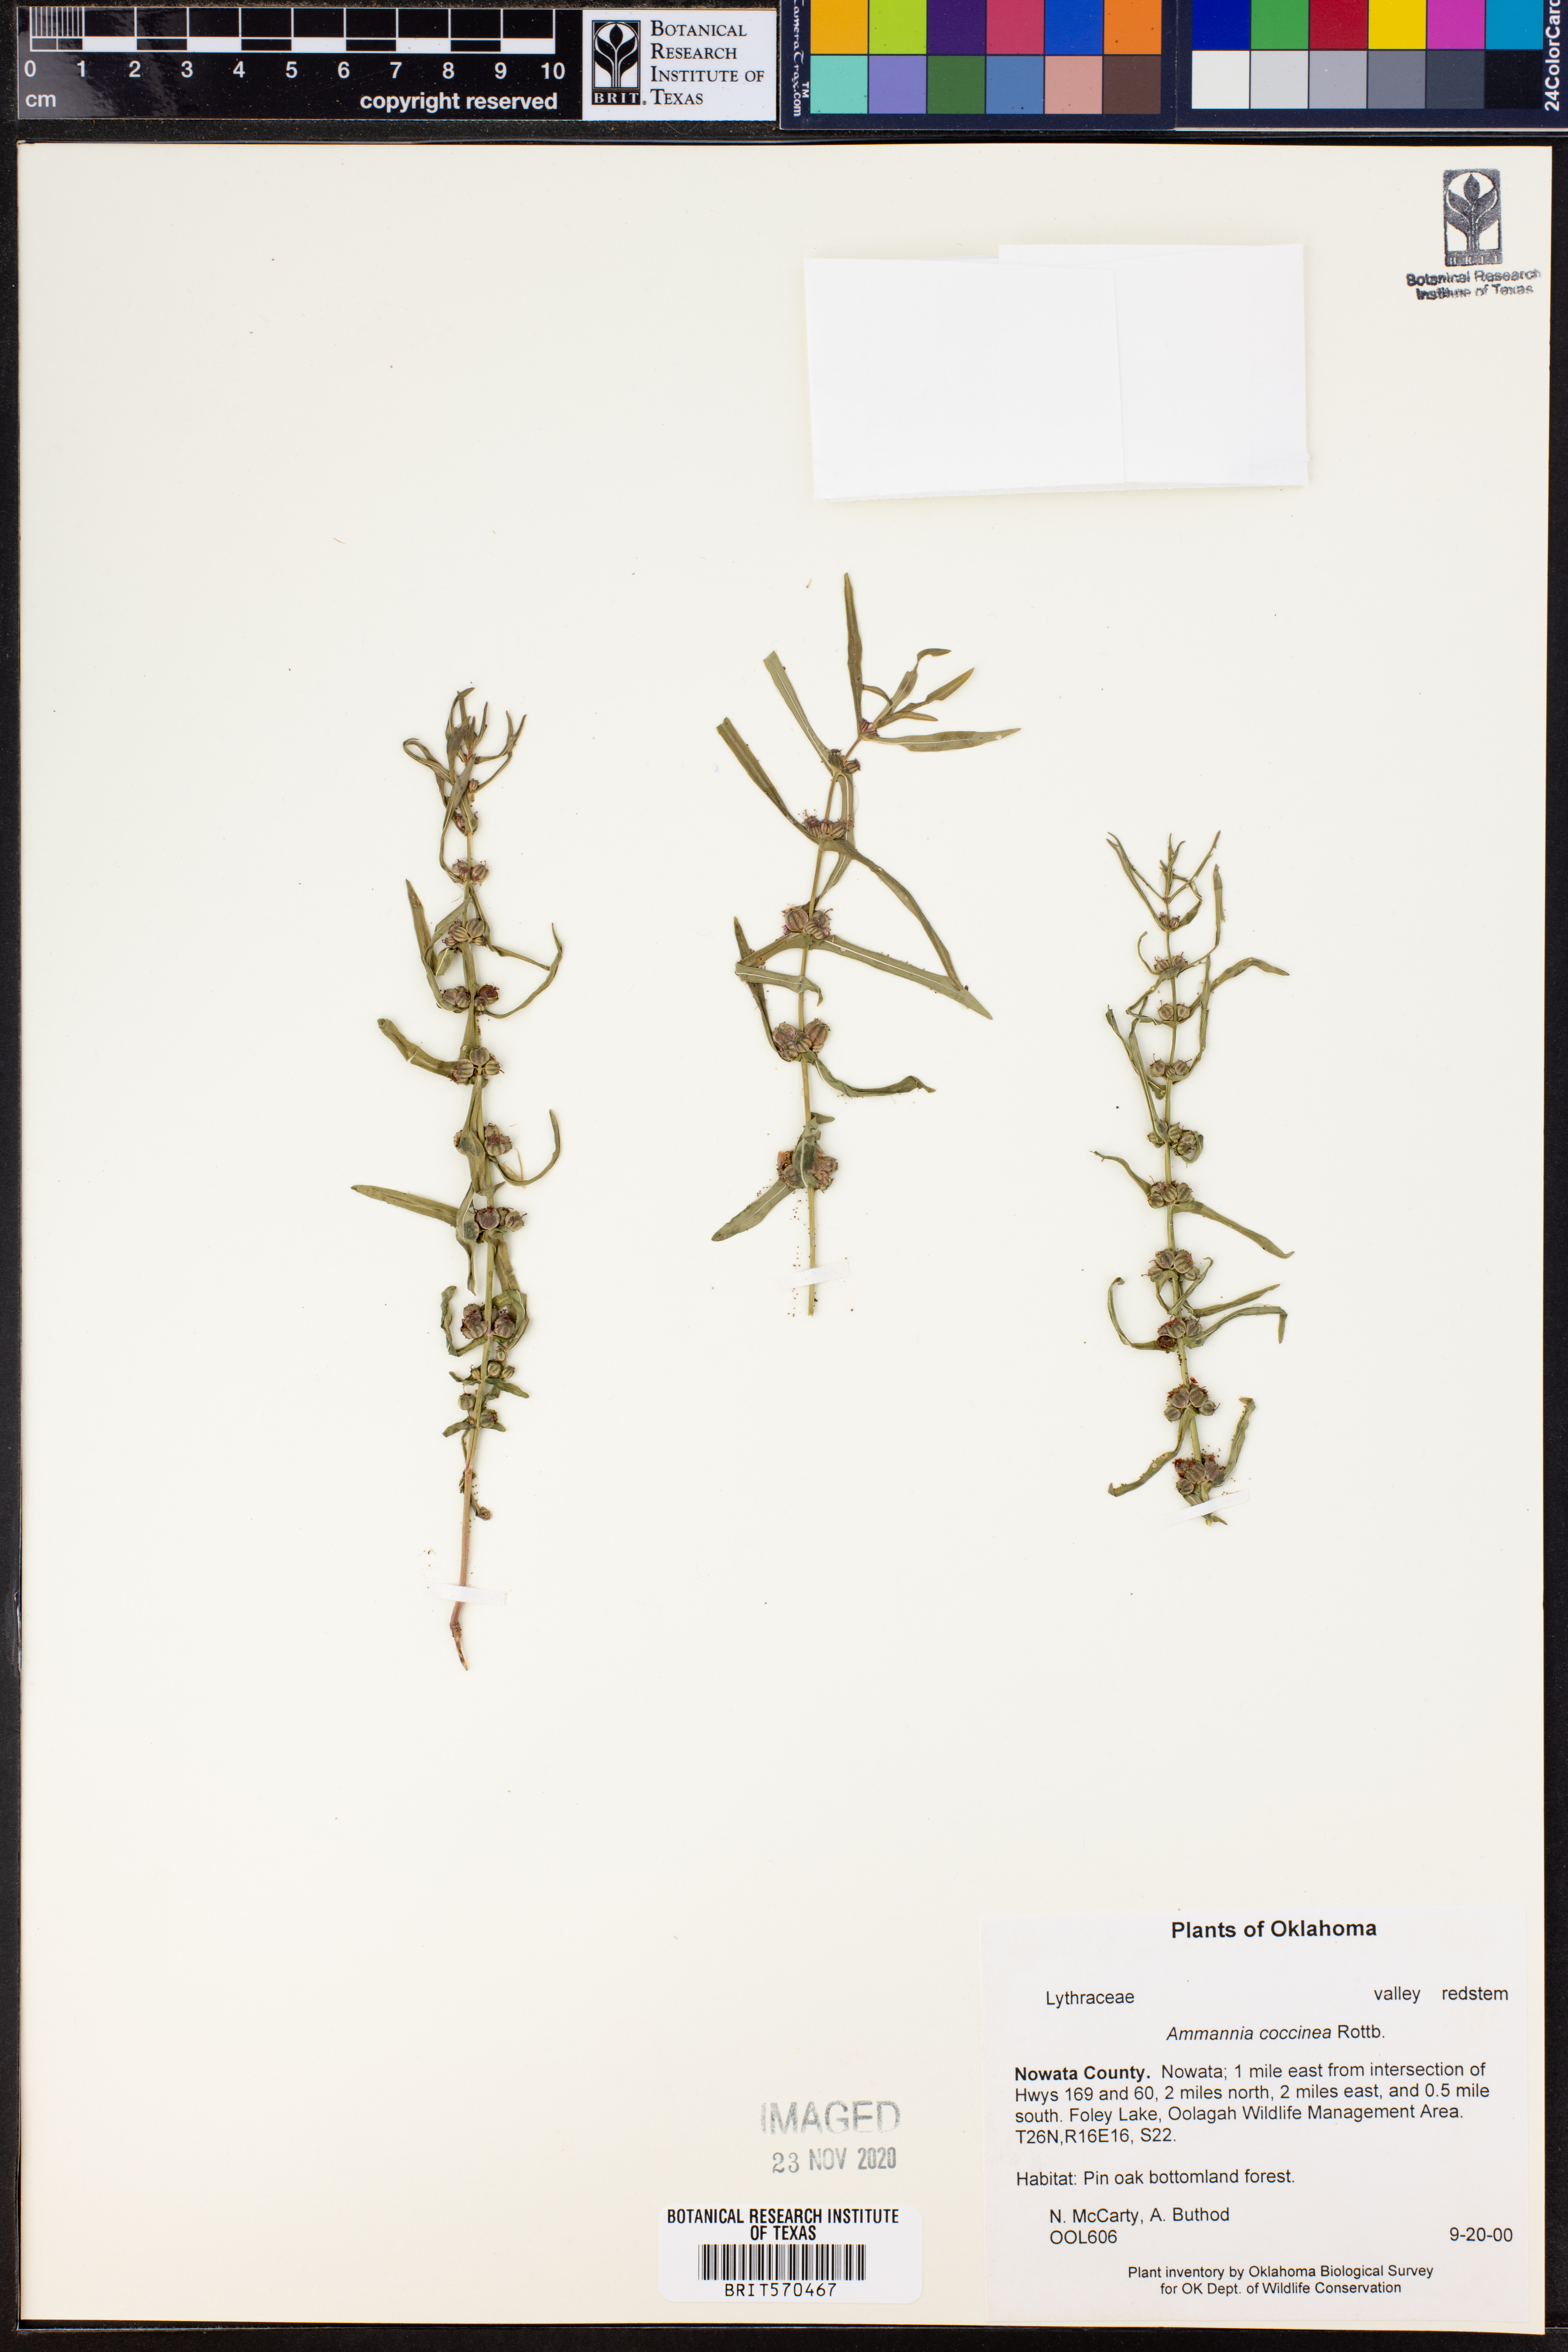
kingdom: Plantae
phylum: Tracheophyta
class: Magnoliopsida
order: Myrtales
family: Lythraceae
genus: Ammannia
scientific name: Ammannia coccinea
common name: Valley redstem
